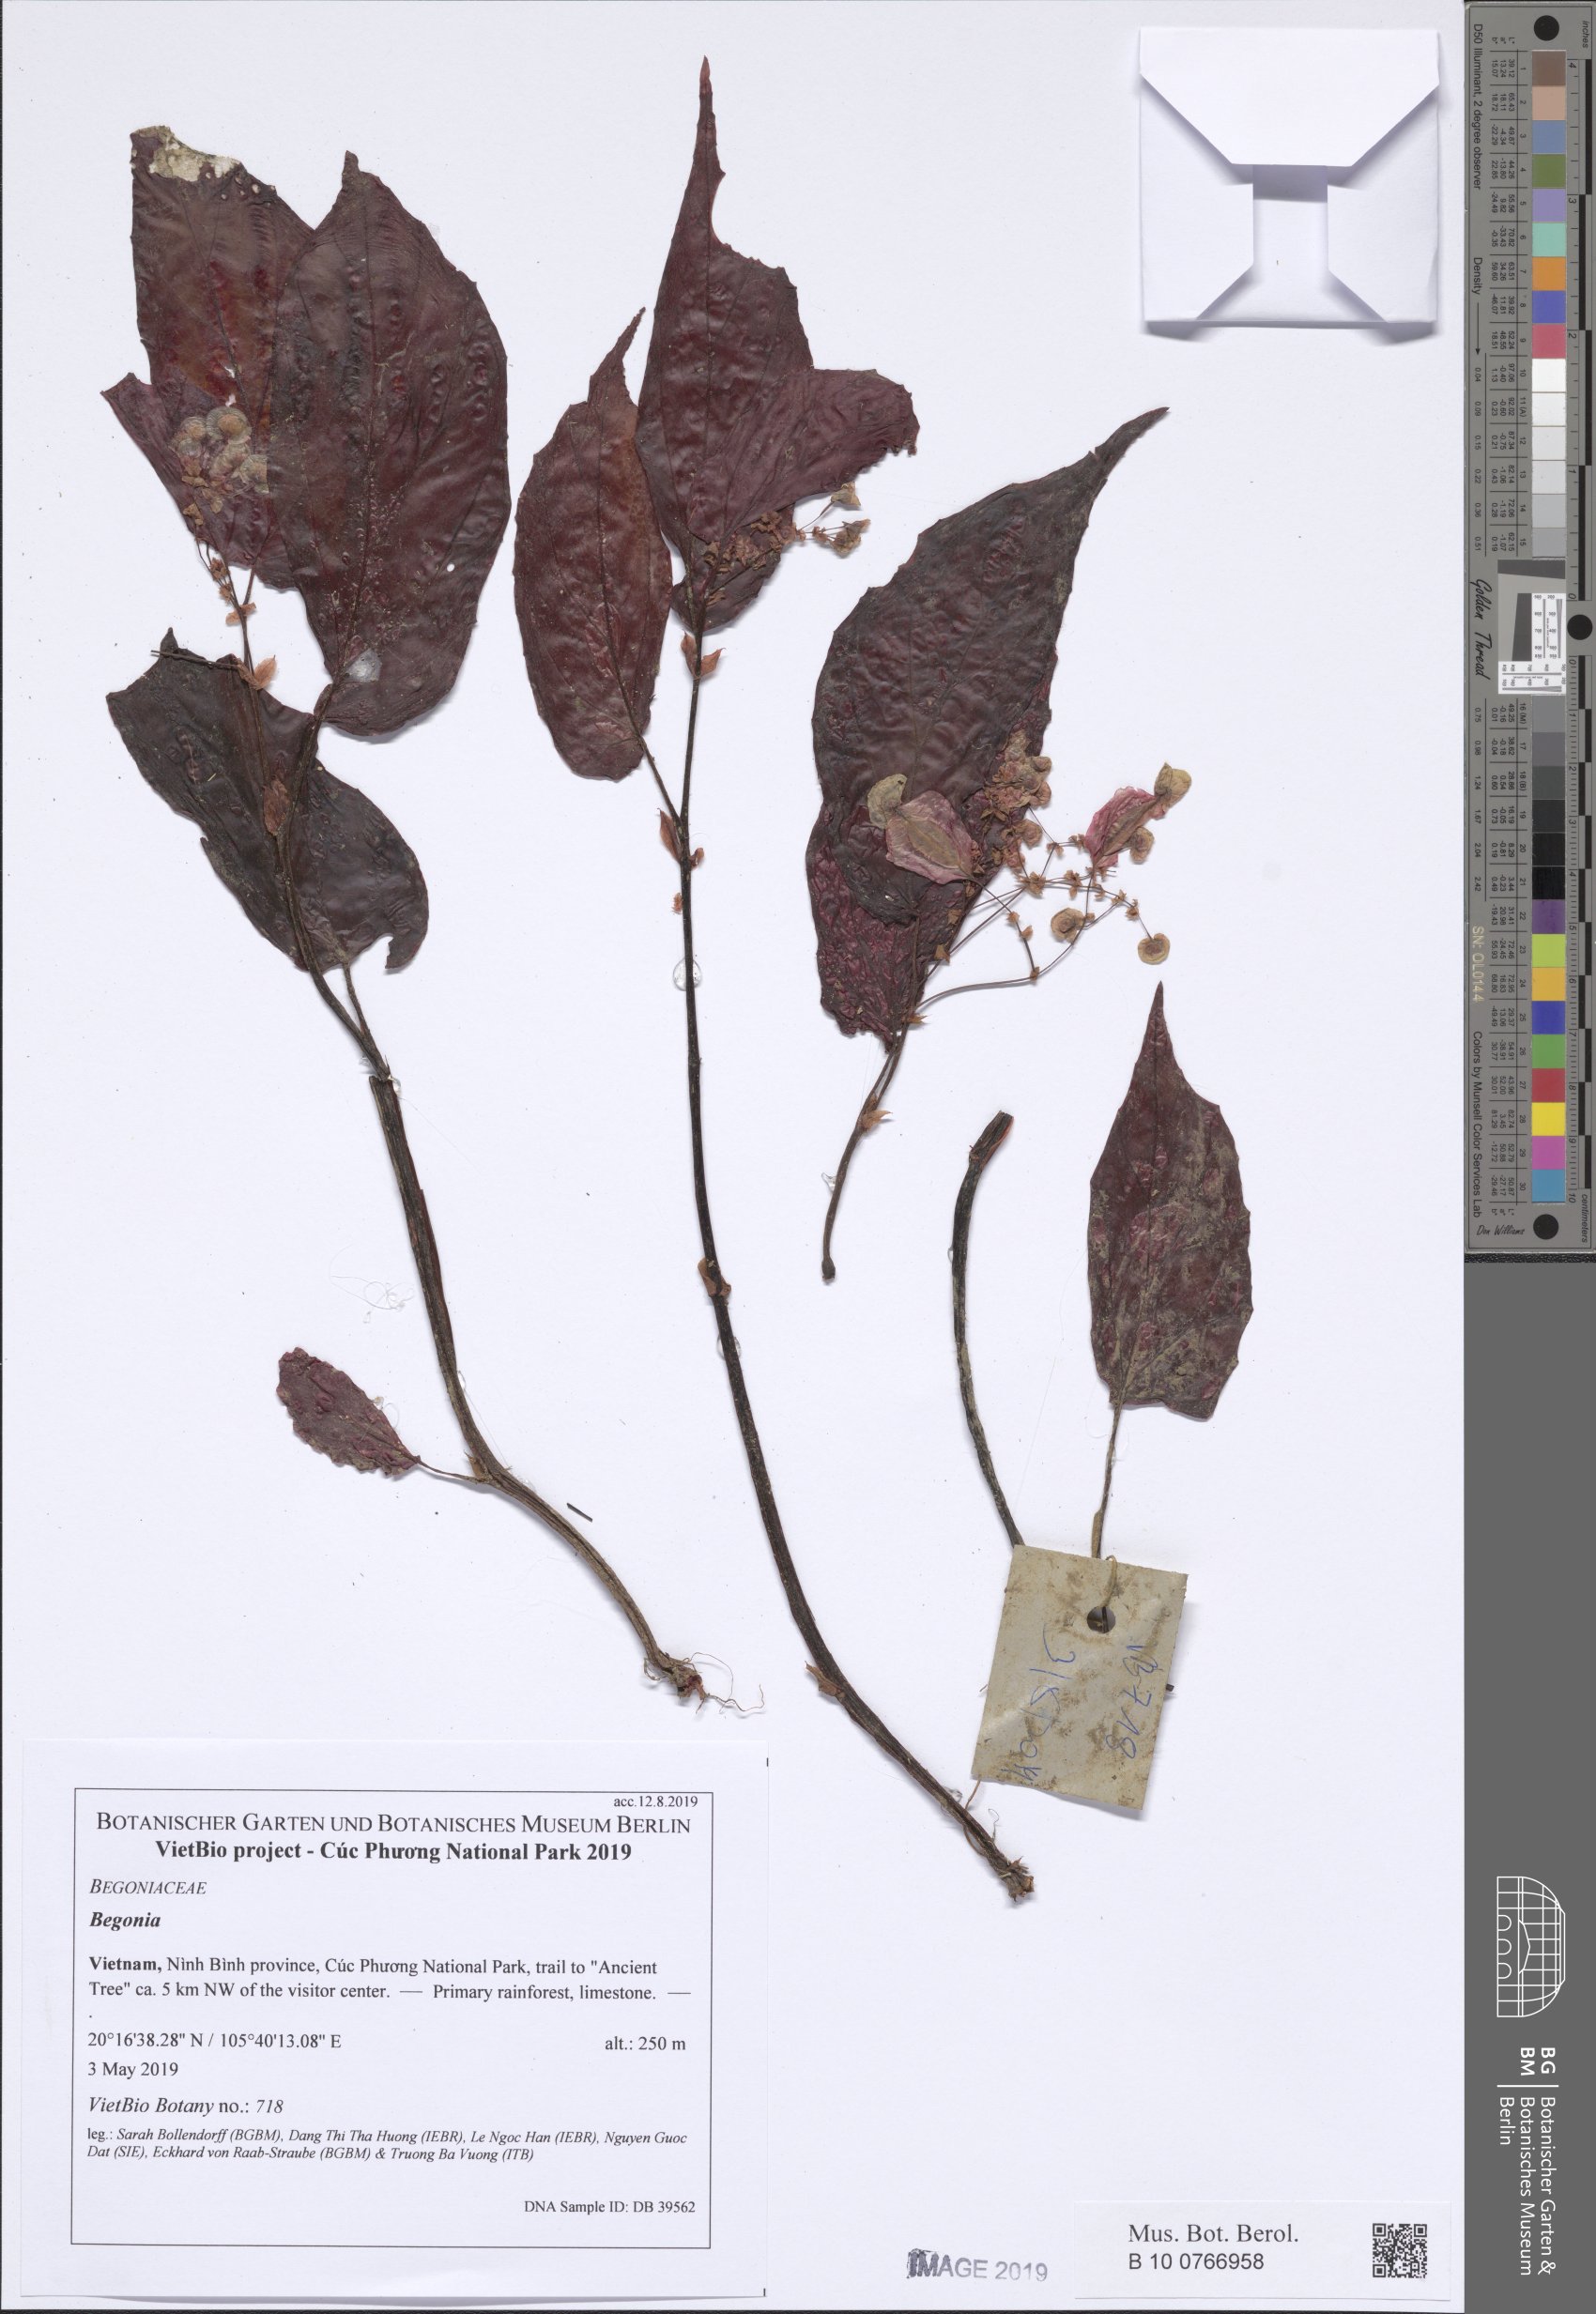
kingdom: Plantae
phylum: Tracheophyta
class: Magnoliopsida
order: Cucurbitales
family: Begoniaceae
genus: Begonia
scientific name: Begonia cucphuongensis
